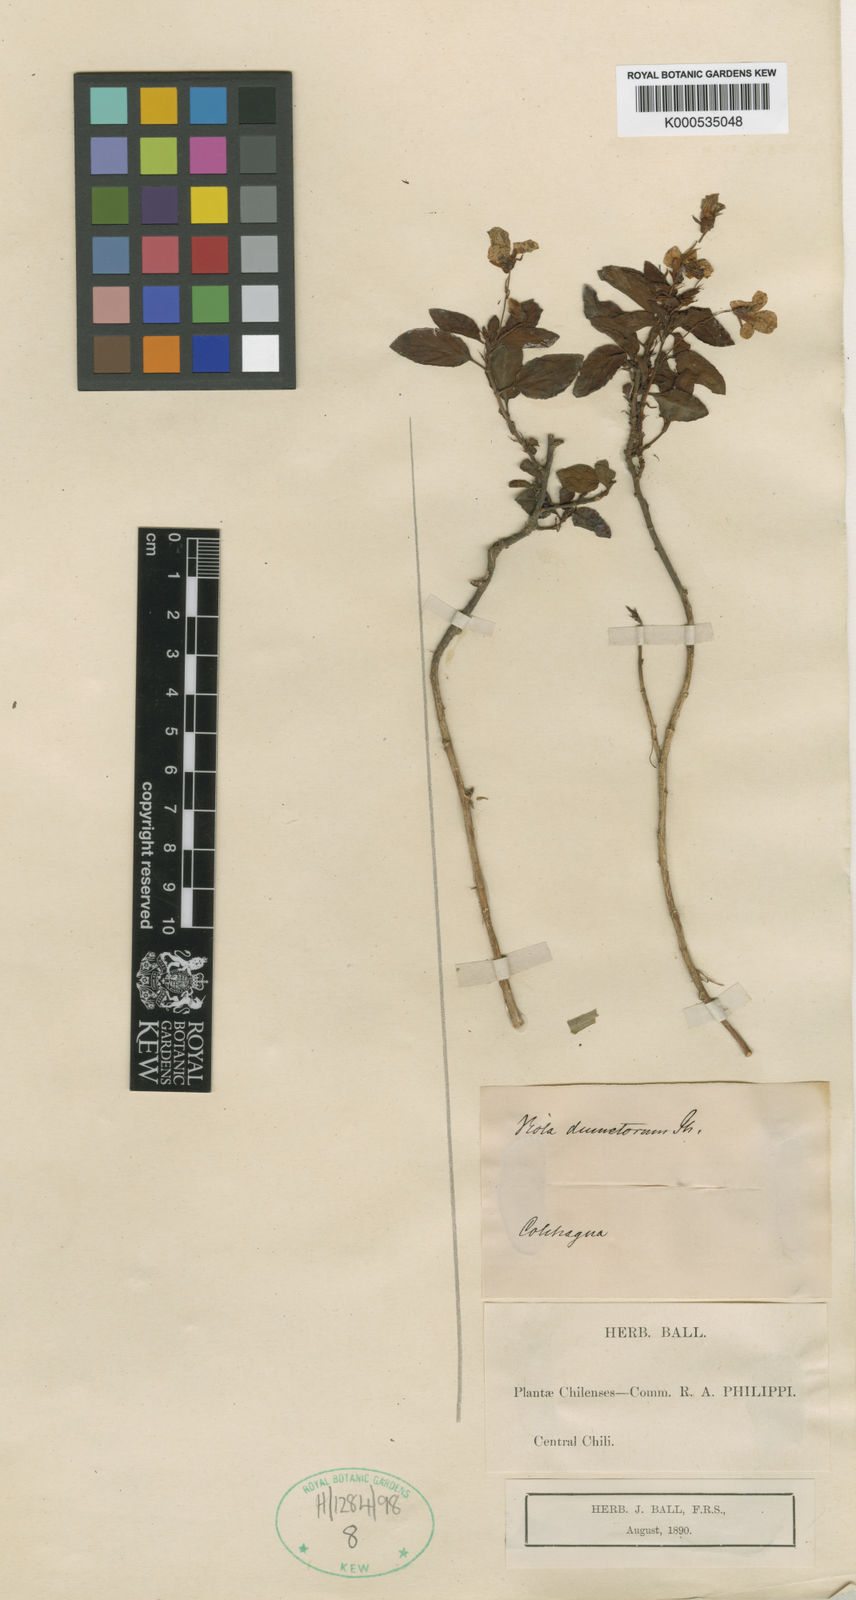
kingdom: Plantae
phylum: Tracheophyta
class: Magnoliopsida
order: Malpighiales
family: Violaceae
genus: Viola
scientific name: Viola
